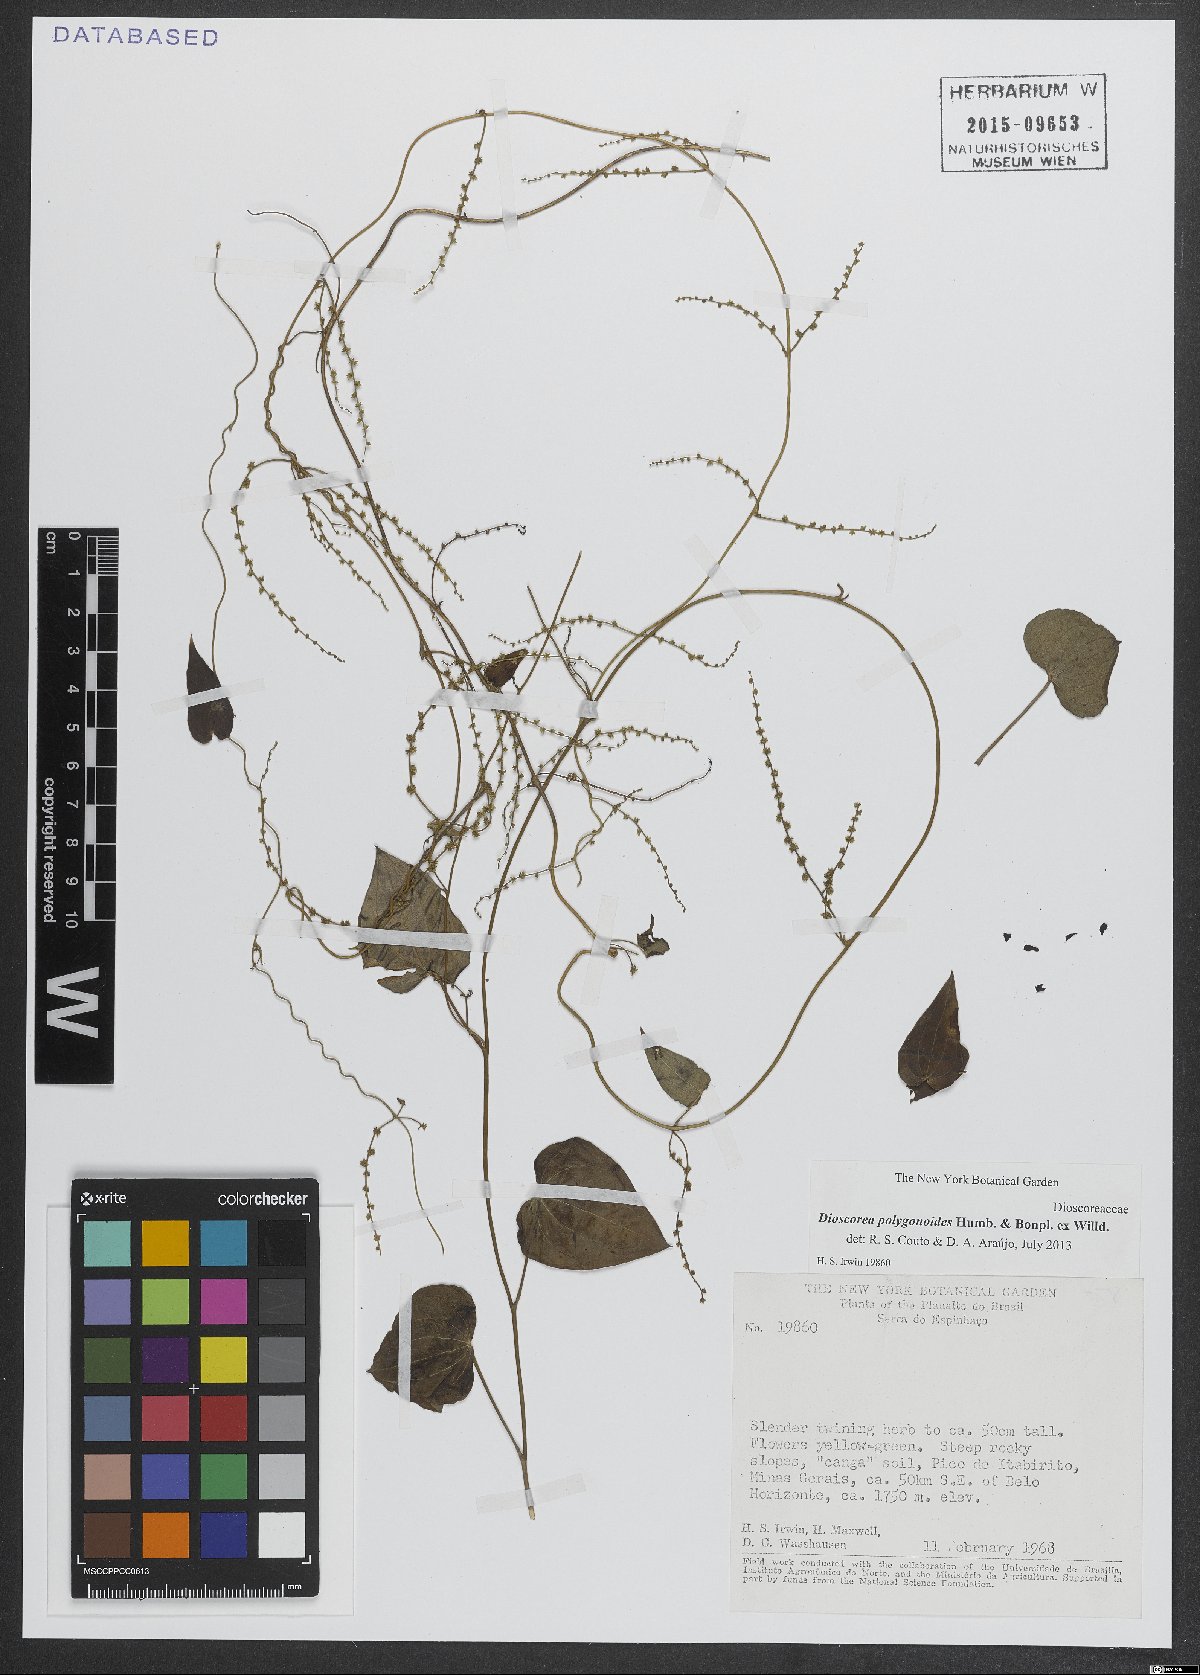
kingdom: Plantae
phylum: Tracheophyta
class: Liliopsida
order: Dioscoreales
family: Dioscoreaceae
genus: Dioscorea
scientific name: Dioscorea polygonoides
